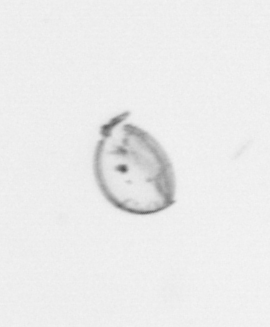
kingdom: Chromista
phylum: Ochrophyta
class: Bacillariophyceae
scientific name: Bacillariophyceae
